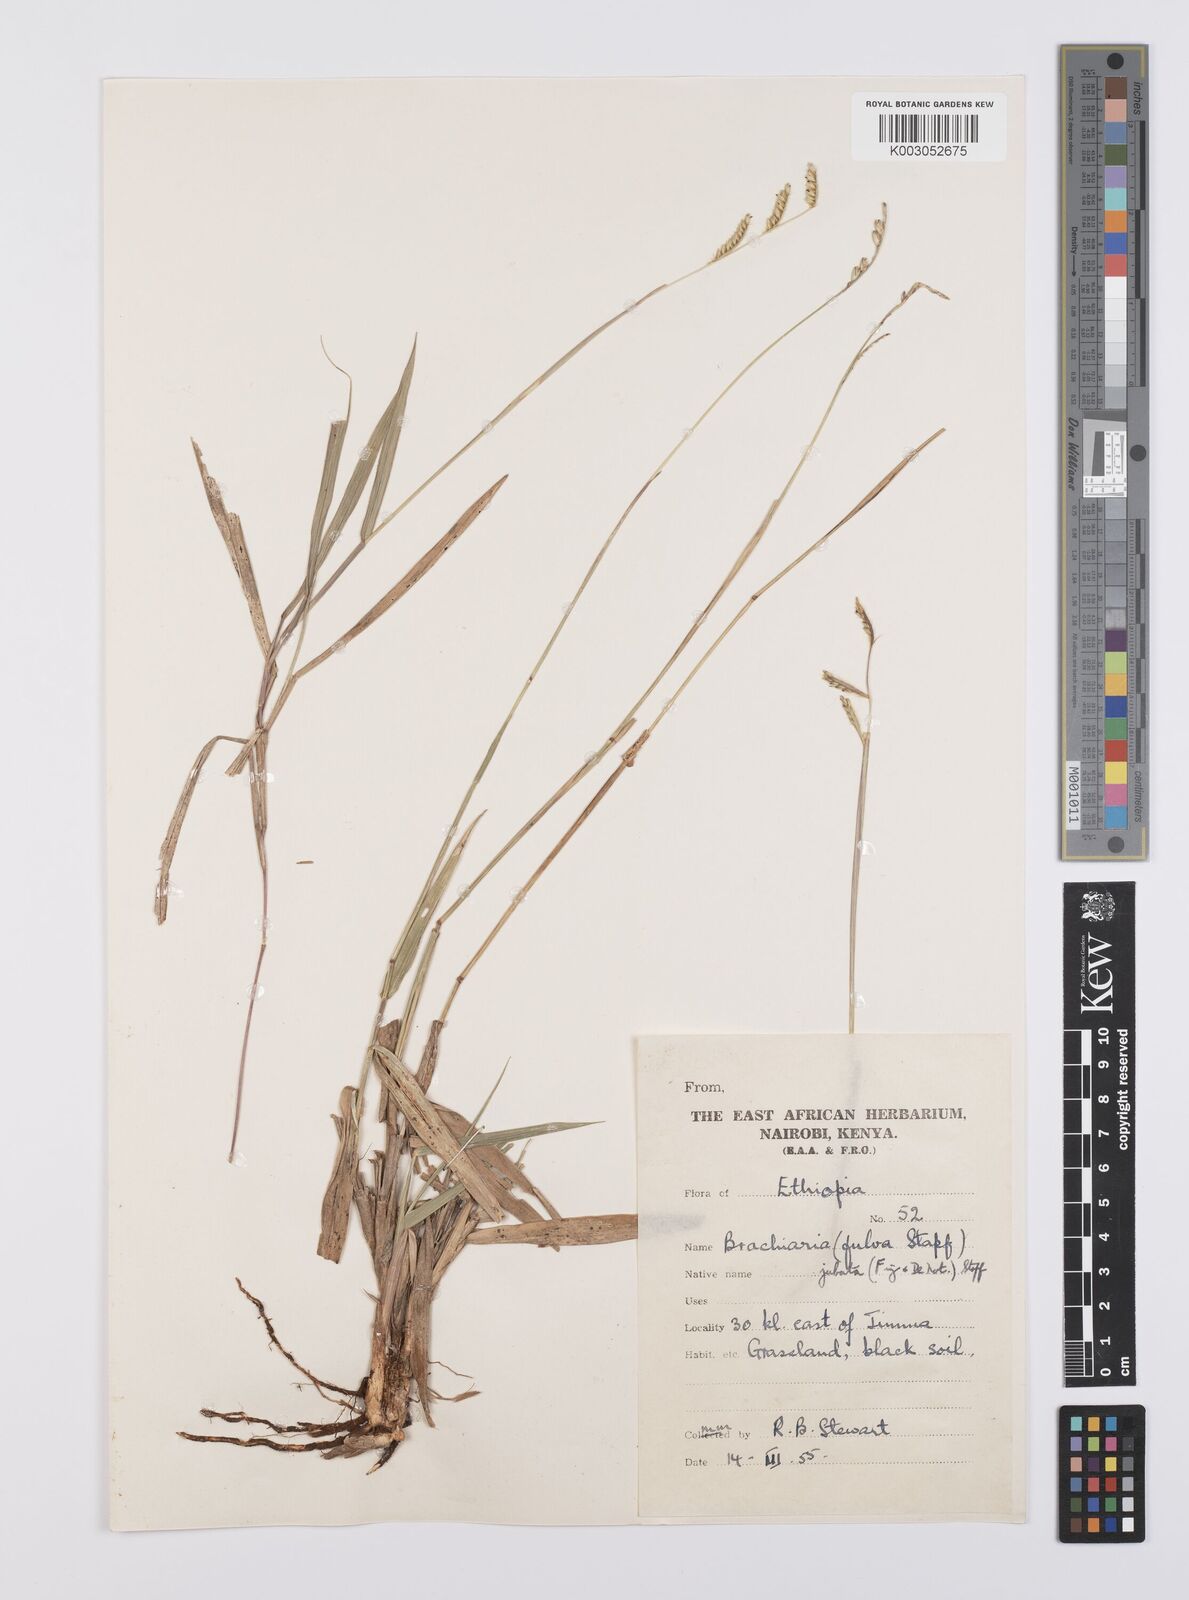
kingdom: Plantae
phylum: Tracheophyta
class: Liliopsida
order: Poales
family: Poaceae
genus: Urochloa
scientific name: Urochloa jubata
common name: Buffalograss
